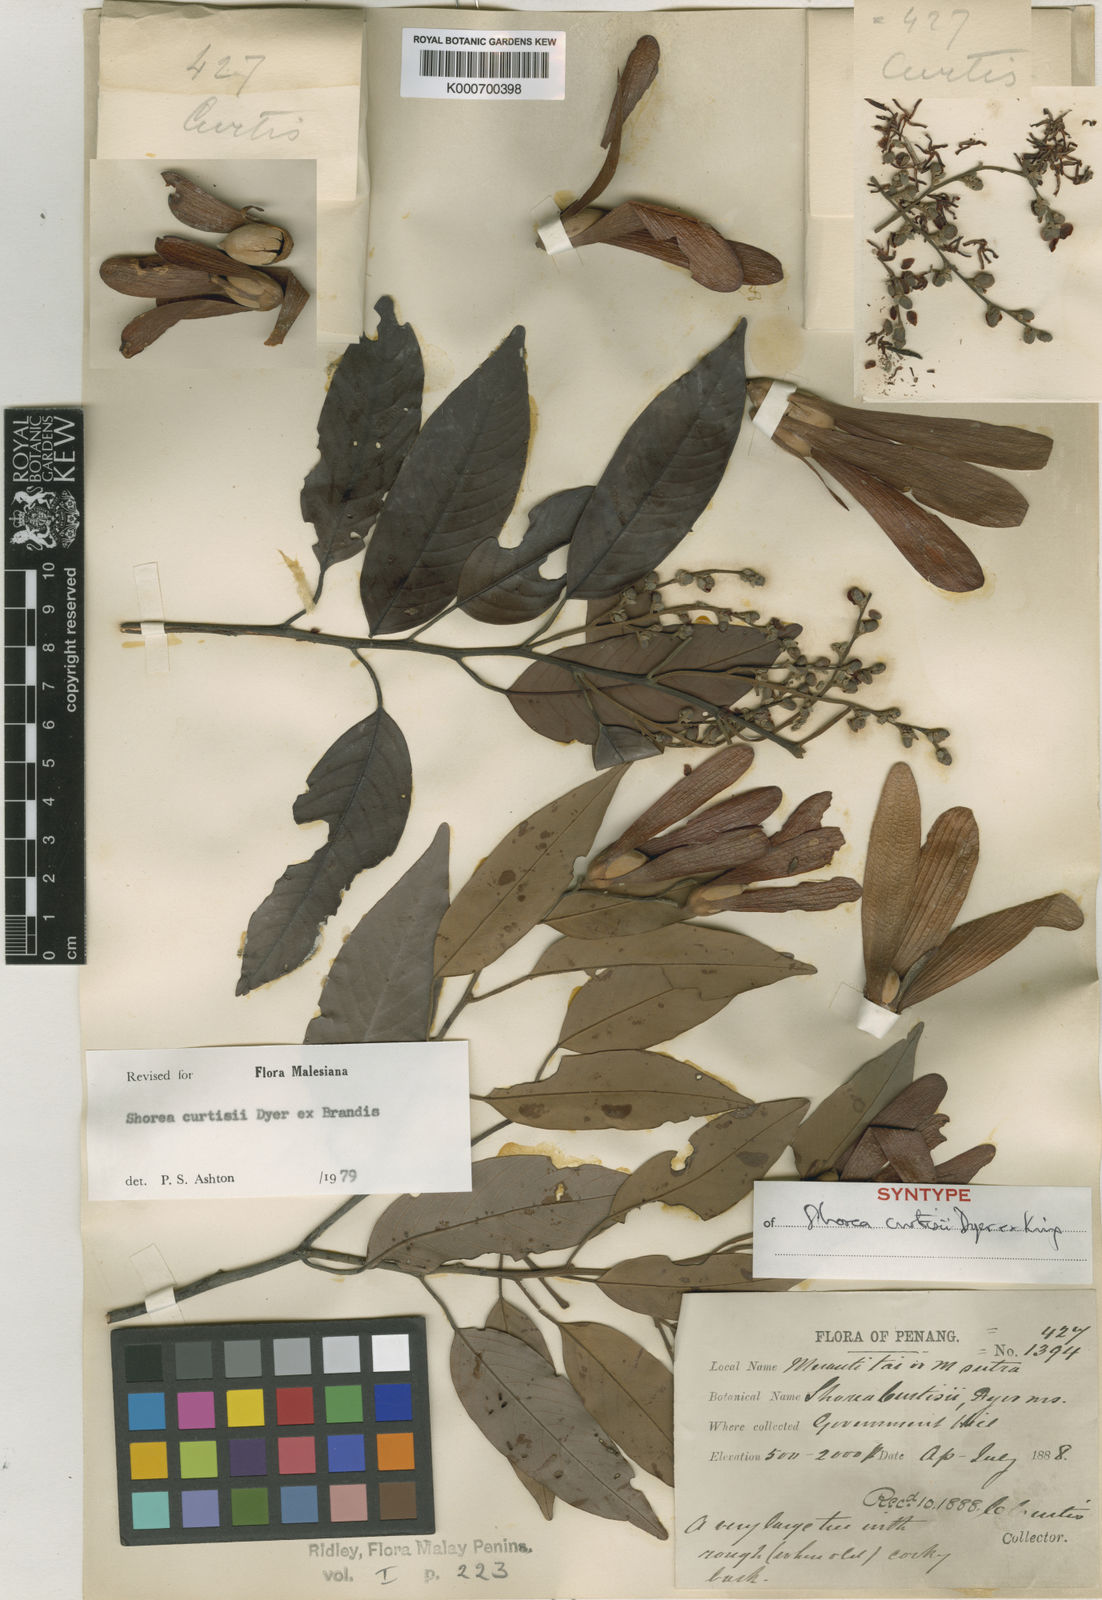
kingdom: Plantae
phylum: Tracheophyta
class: Magnoliopsida
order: Malvales
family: Dipterocarpaceae
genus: Shorea
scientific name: Shorea curtisii
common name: Dark red meranti
